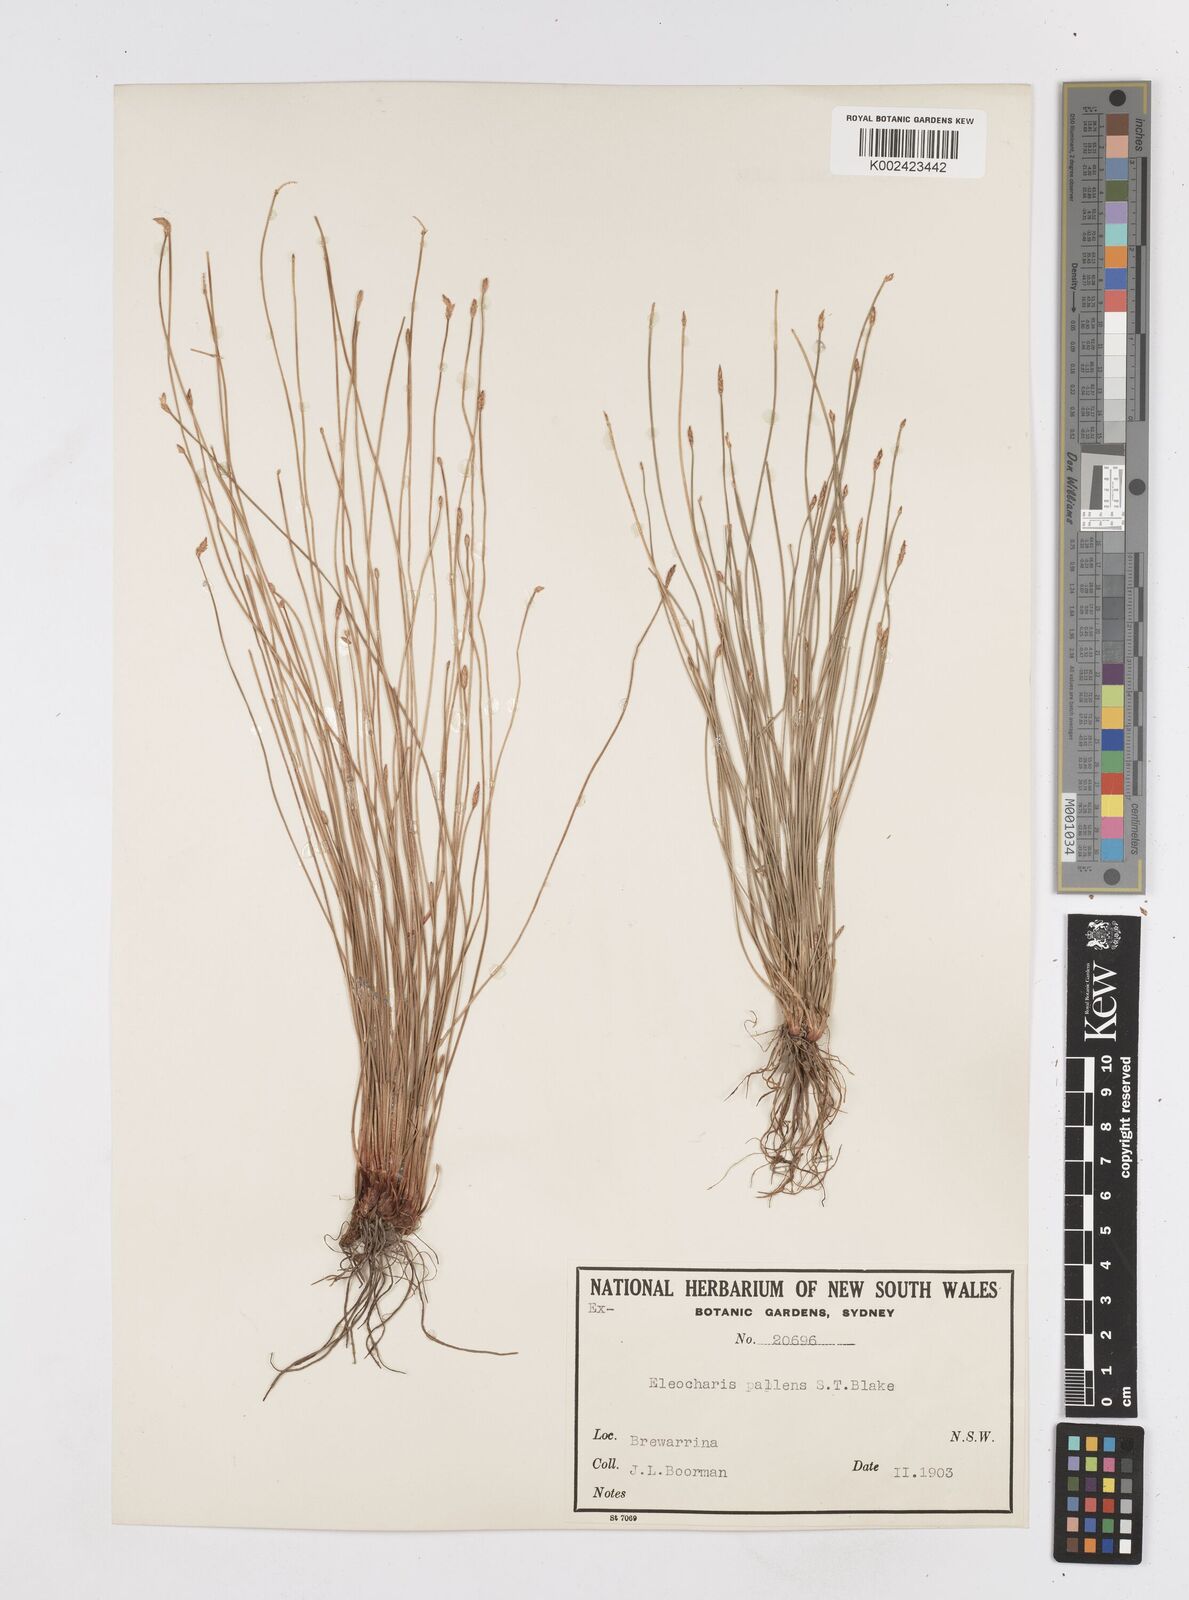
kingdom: Plantae
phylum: Tracheophyta
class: Liliopsida
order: Poales
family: Cyperaceae
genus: Eleocharis
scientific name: Eleocharis acuta
